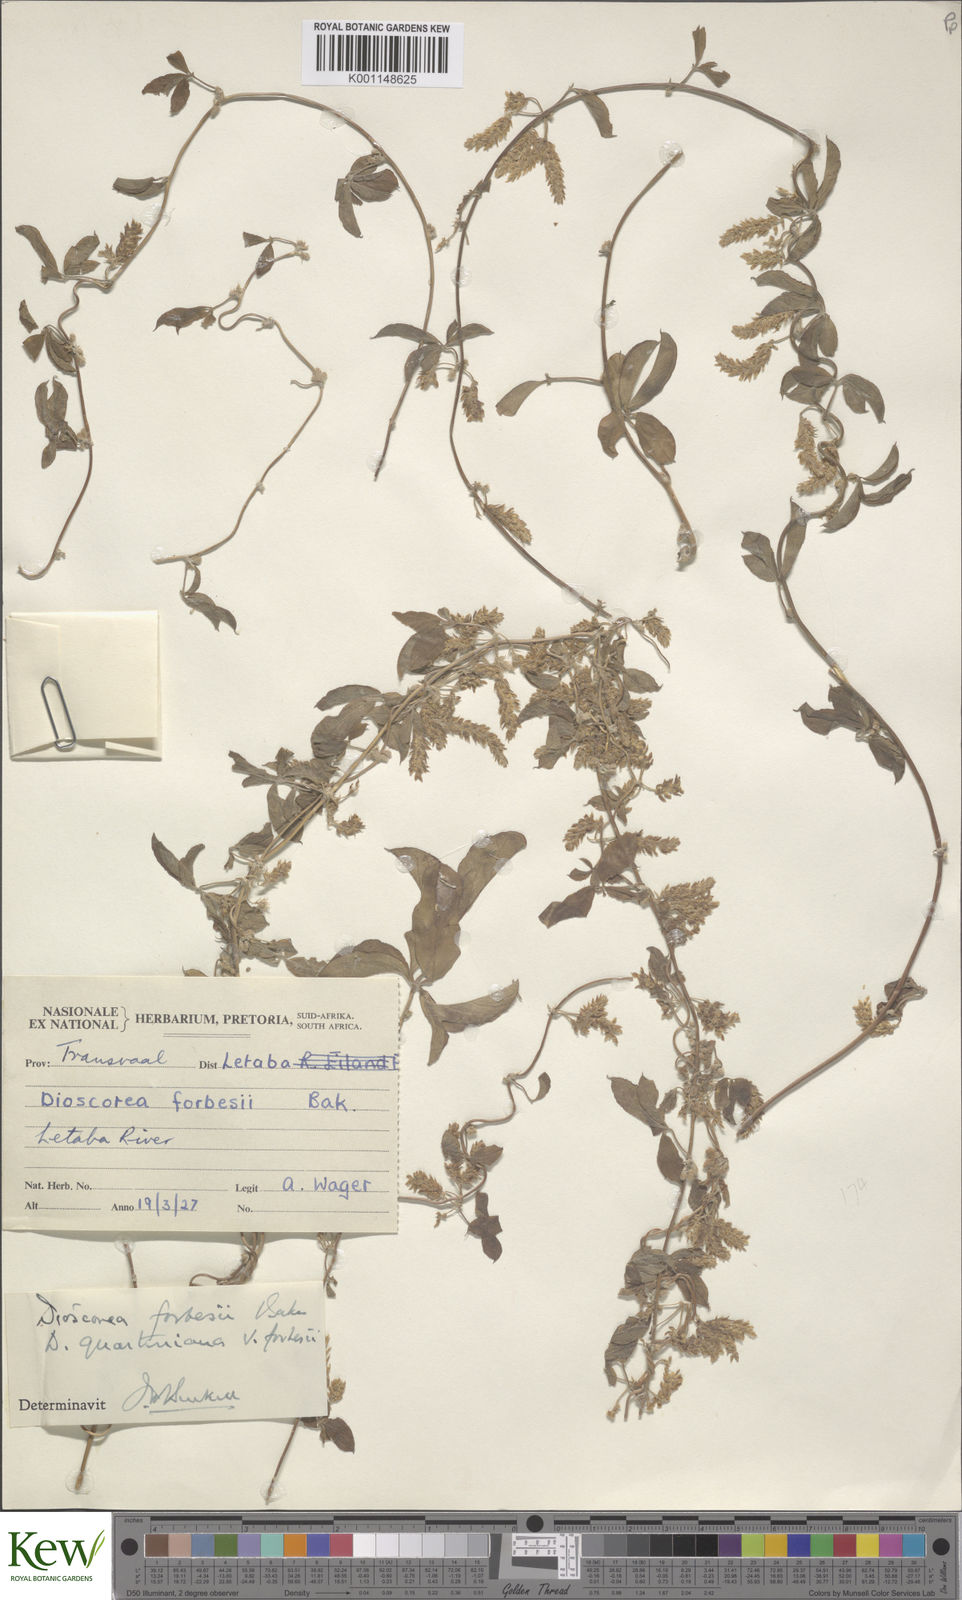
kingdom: Plantae
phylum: Tracheophyta
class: Liliopsida
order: Dioscoreales
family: Dioscoreaceae
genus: Dioscorea
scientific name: Dioscorea quartiniana
